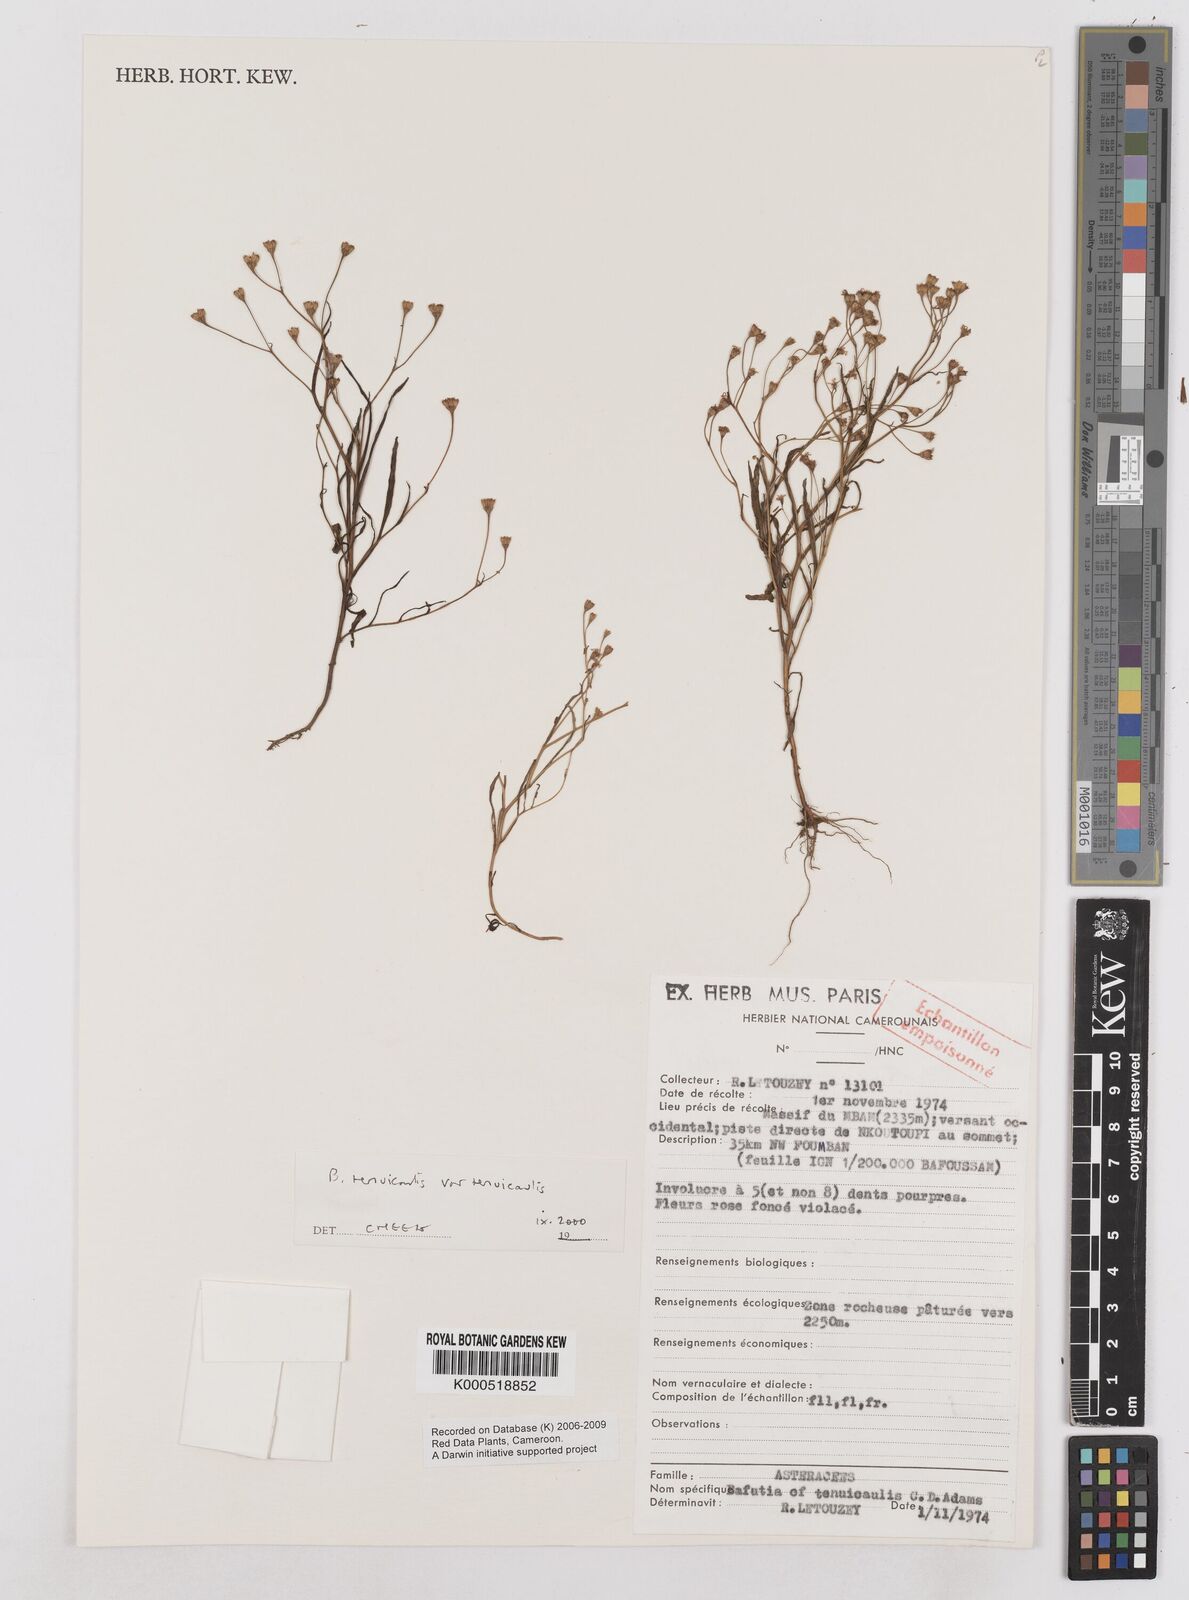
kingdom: Plantae
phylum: Tracheophyta
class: Magnoliopsida
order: Asterales
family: Asteraceae
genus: Emilia
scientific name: Emilia tenuicaulis
